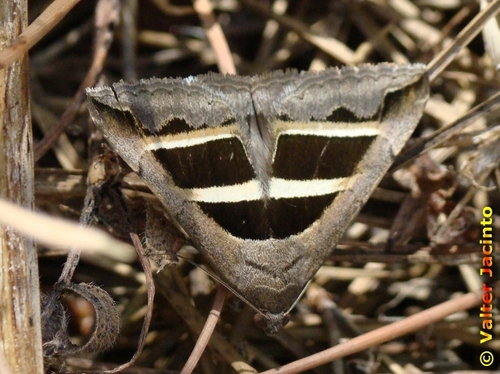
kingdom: Animalia
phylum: Arthropoda
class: Insecta
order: Lepidoptera
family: Erebidae
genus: Grammodes
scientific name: Grammodes bifasciata
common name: Parallel lines
